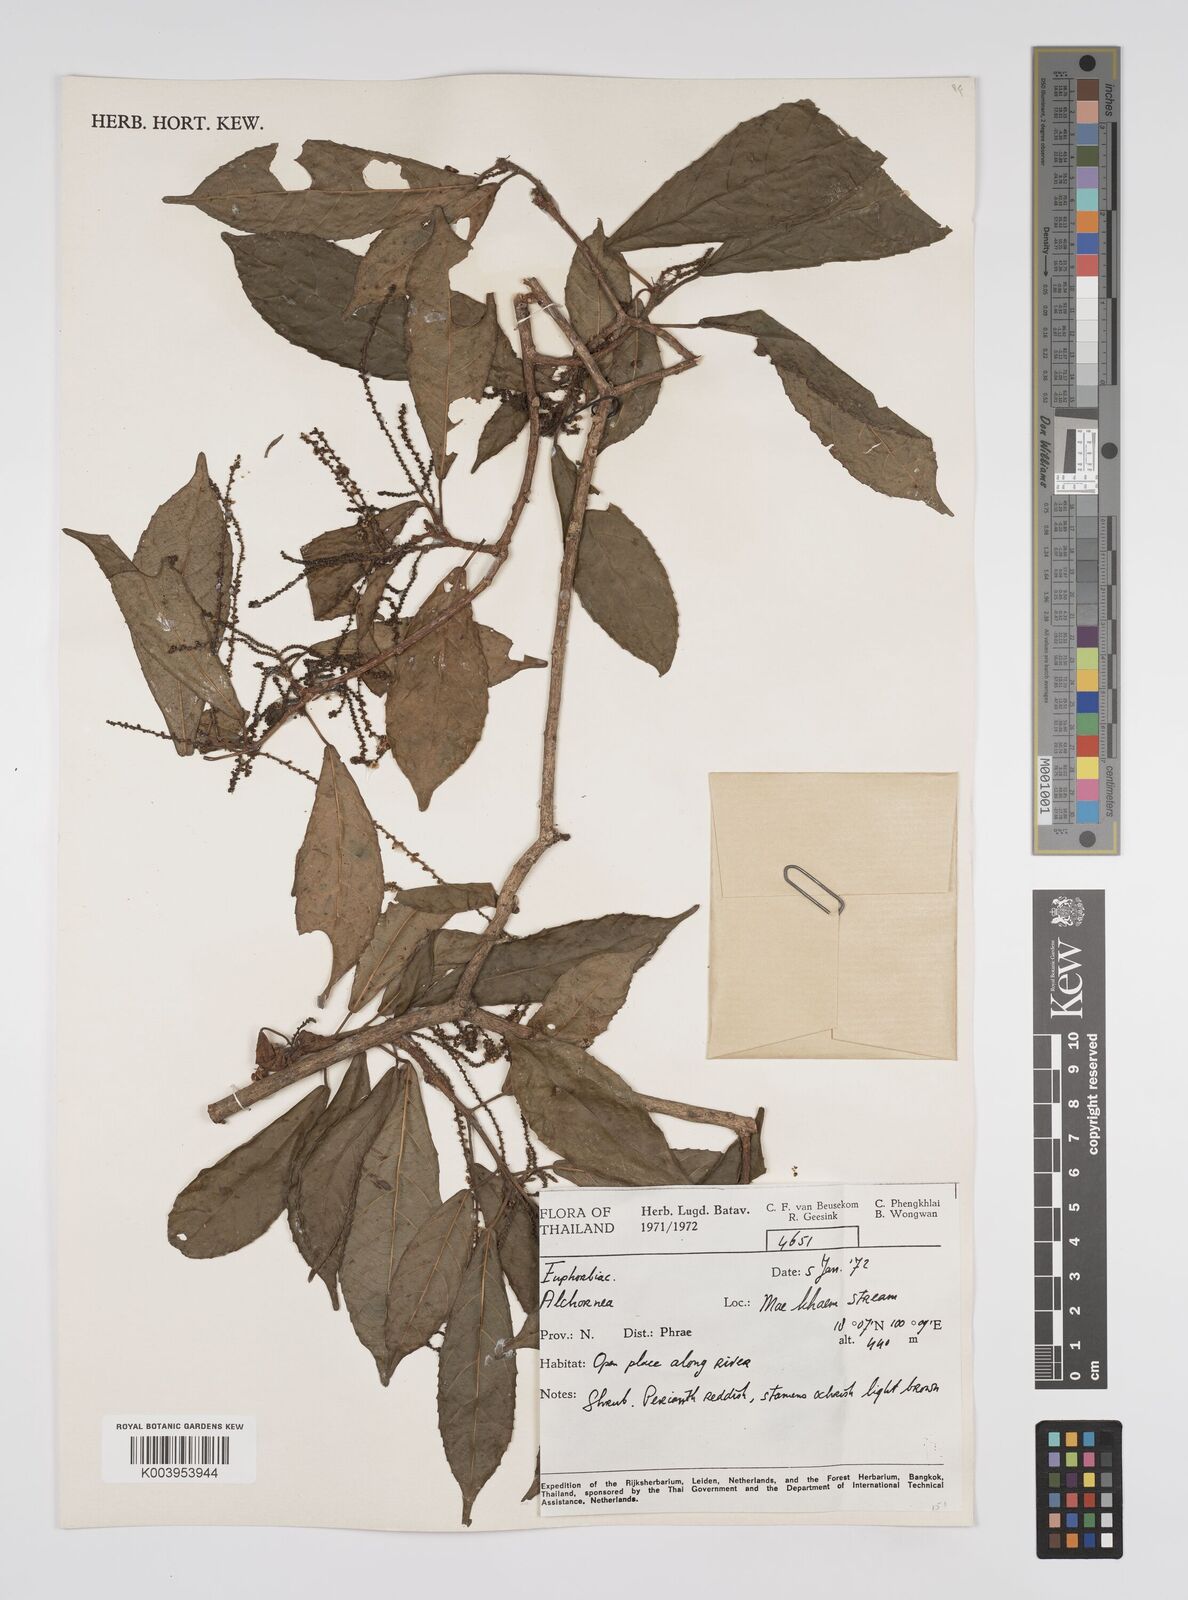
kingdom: Plantae
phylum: Tracheophyta
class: Magnoliopsida
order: Malpighiales
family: Euphorbiaceae
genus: Alchornea
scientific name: Alchornea rugosa
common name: Alchorntree
